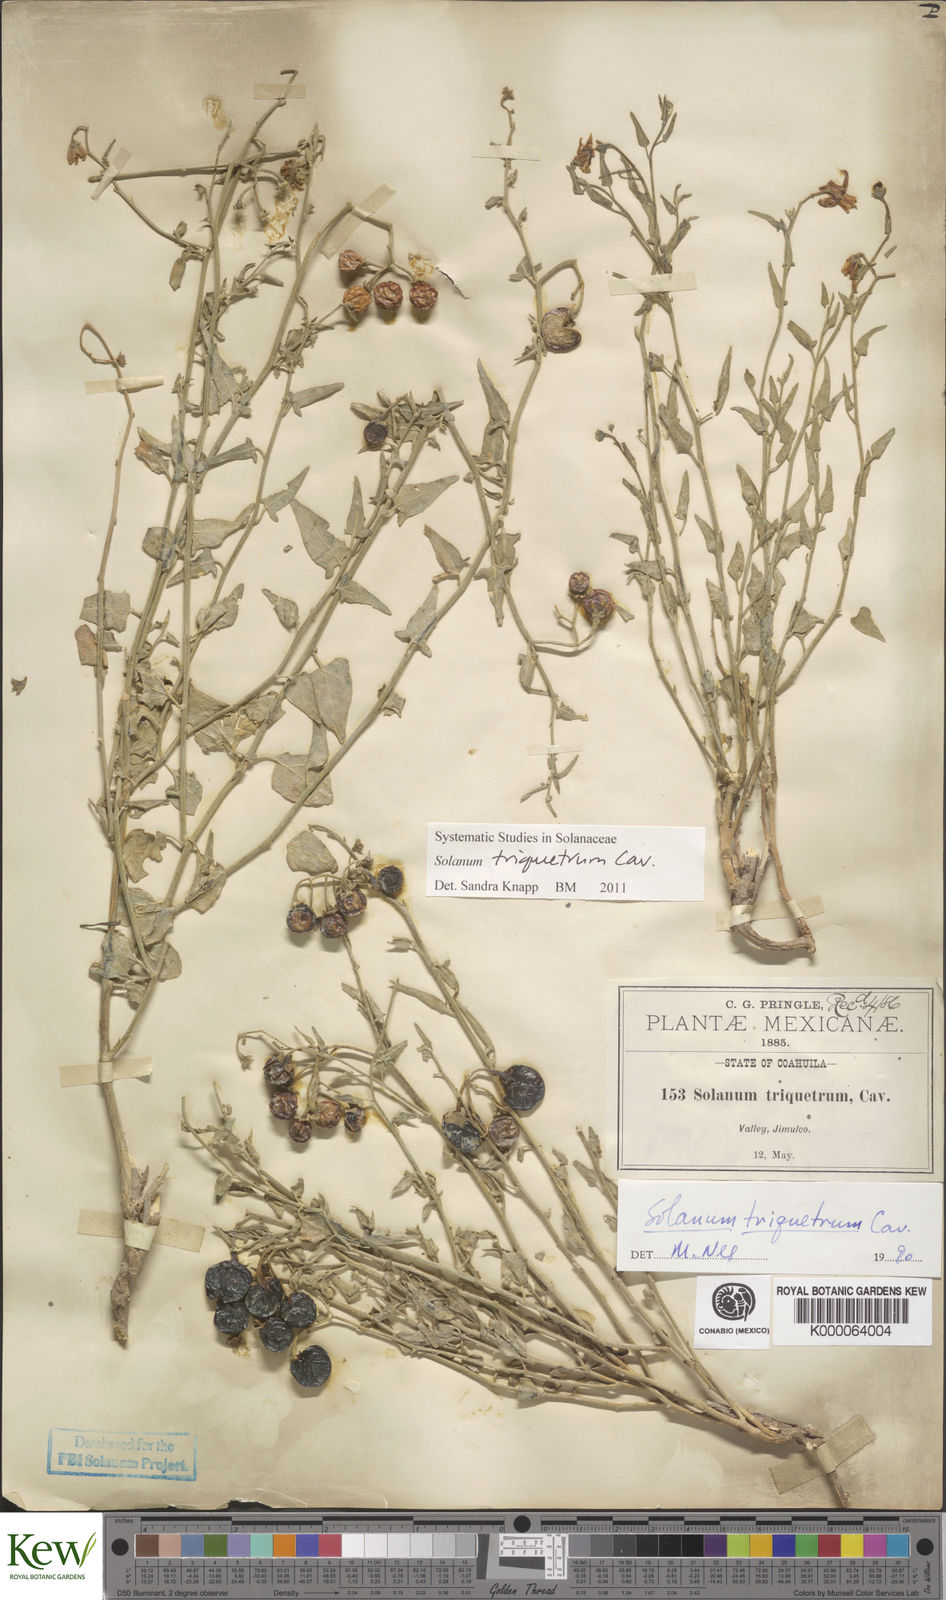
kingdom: Plantae
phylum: Tracheophyta
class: Magnoliopsida
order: Solanales
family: Solanaceae
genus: Solanum
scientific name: Solanum triquetrum
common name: Texas nightshade
